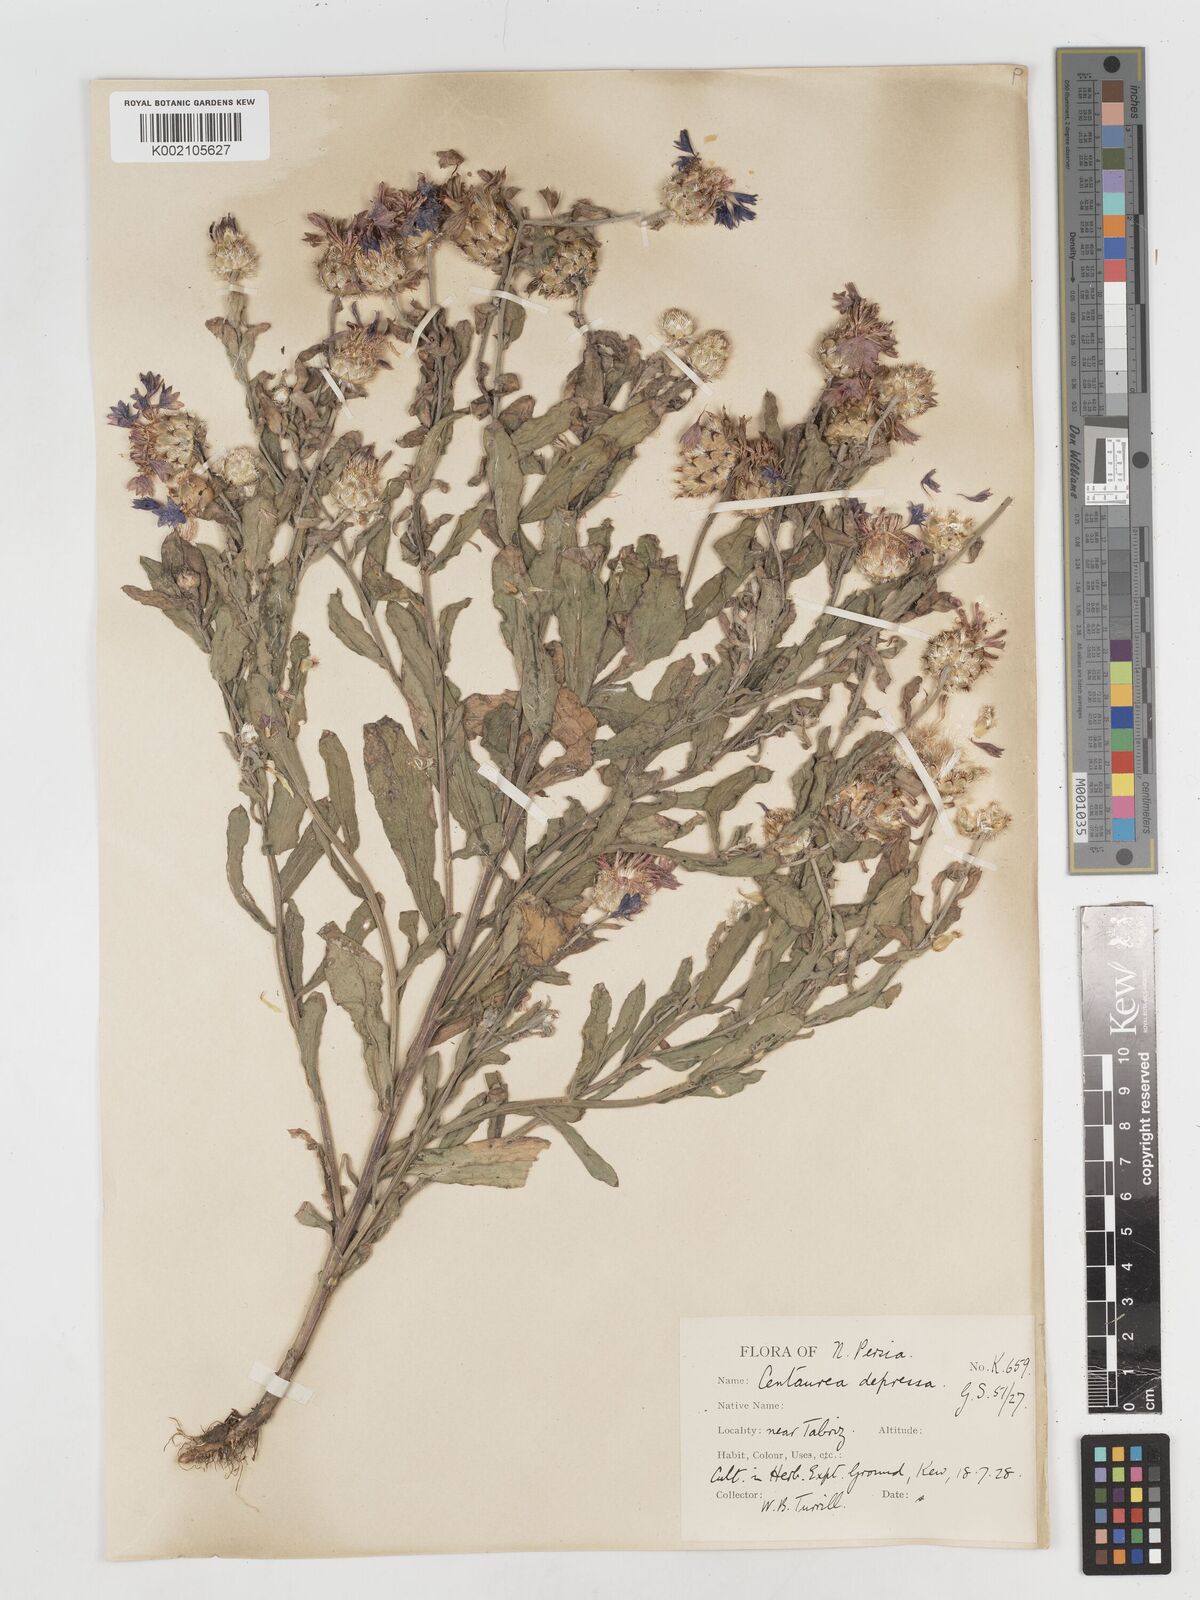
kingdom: Plantae
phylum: Tracheophyta
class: Magnoliopsida
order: Asterales
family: Asteraceae
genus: Centaurea
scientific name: Centaurea depressa
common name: Iranian knapweed
